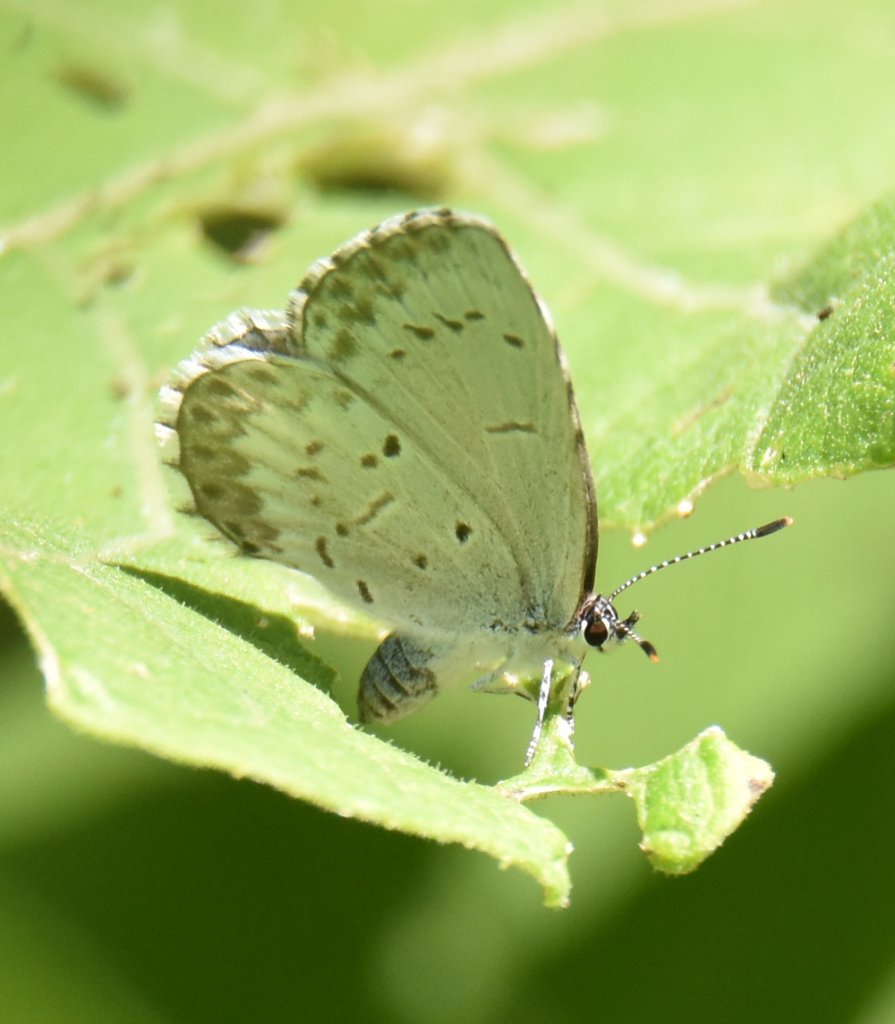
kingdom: Animalia
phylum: Arthropoda
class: Insecta
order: Lepidoptera
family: Lycaenidae
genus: Celastrina
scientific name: Celastrina
